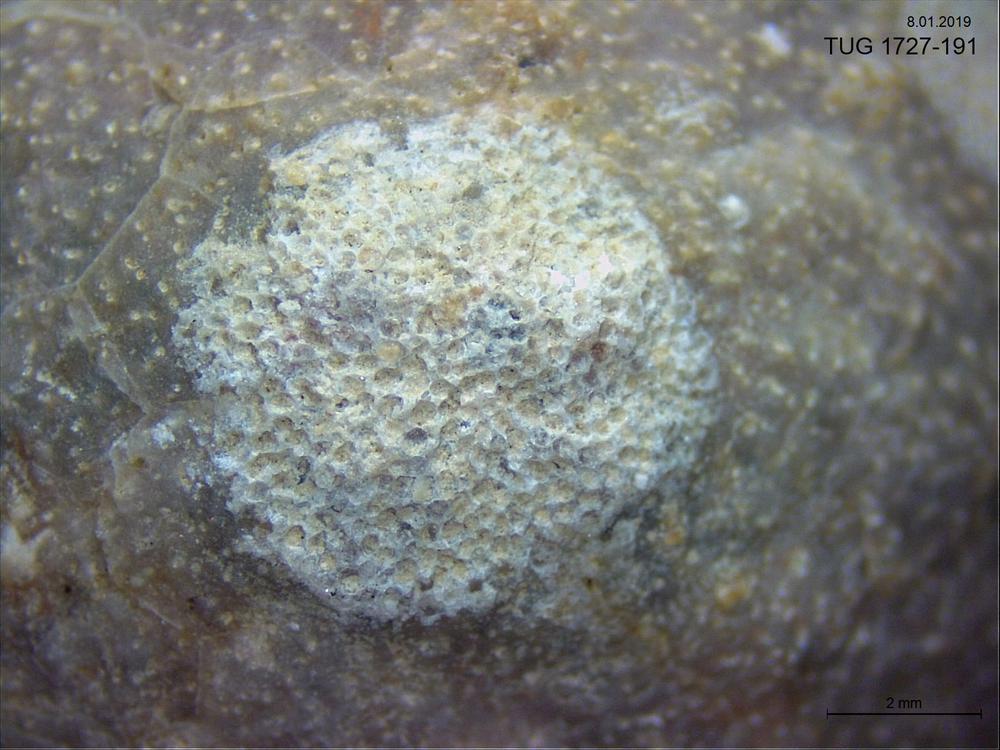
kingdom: Animalia
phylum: Bryozoa
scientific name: Bryozoa
